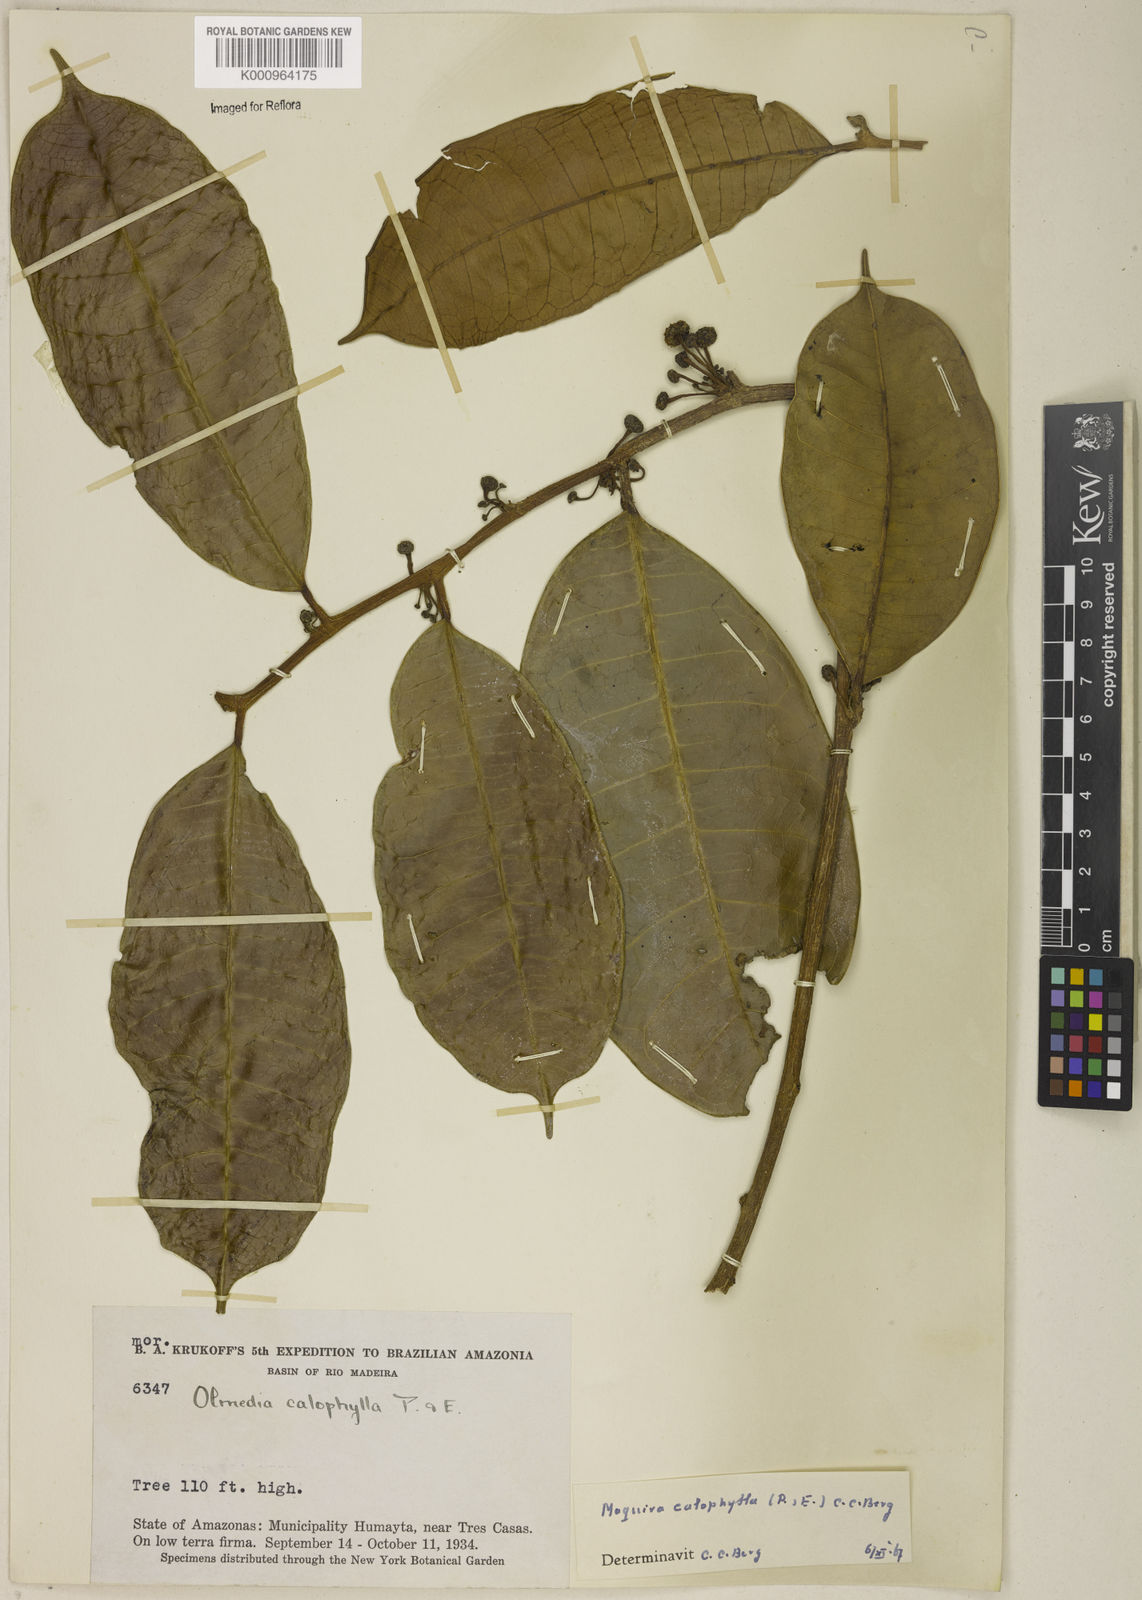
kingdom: Plantae
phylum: Tracheophyta
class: Magnoliopsida
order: Rosales
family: Moraceae
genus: Maquira
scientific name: Maquira calophylla
